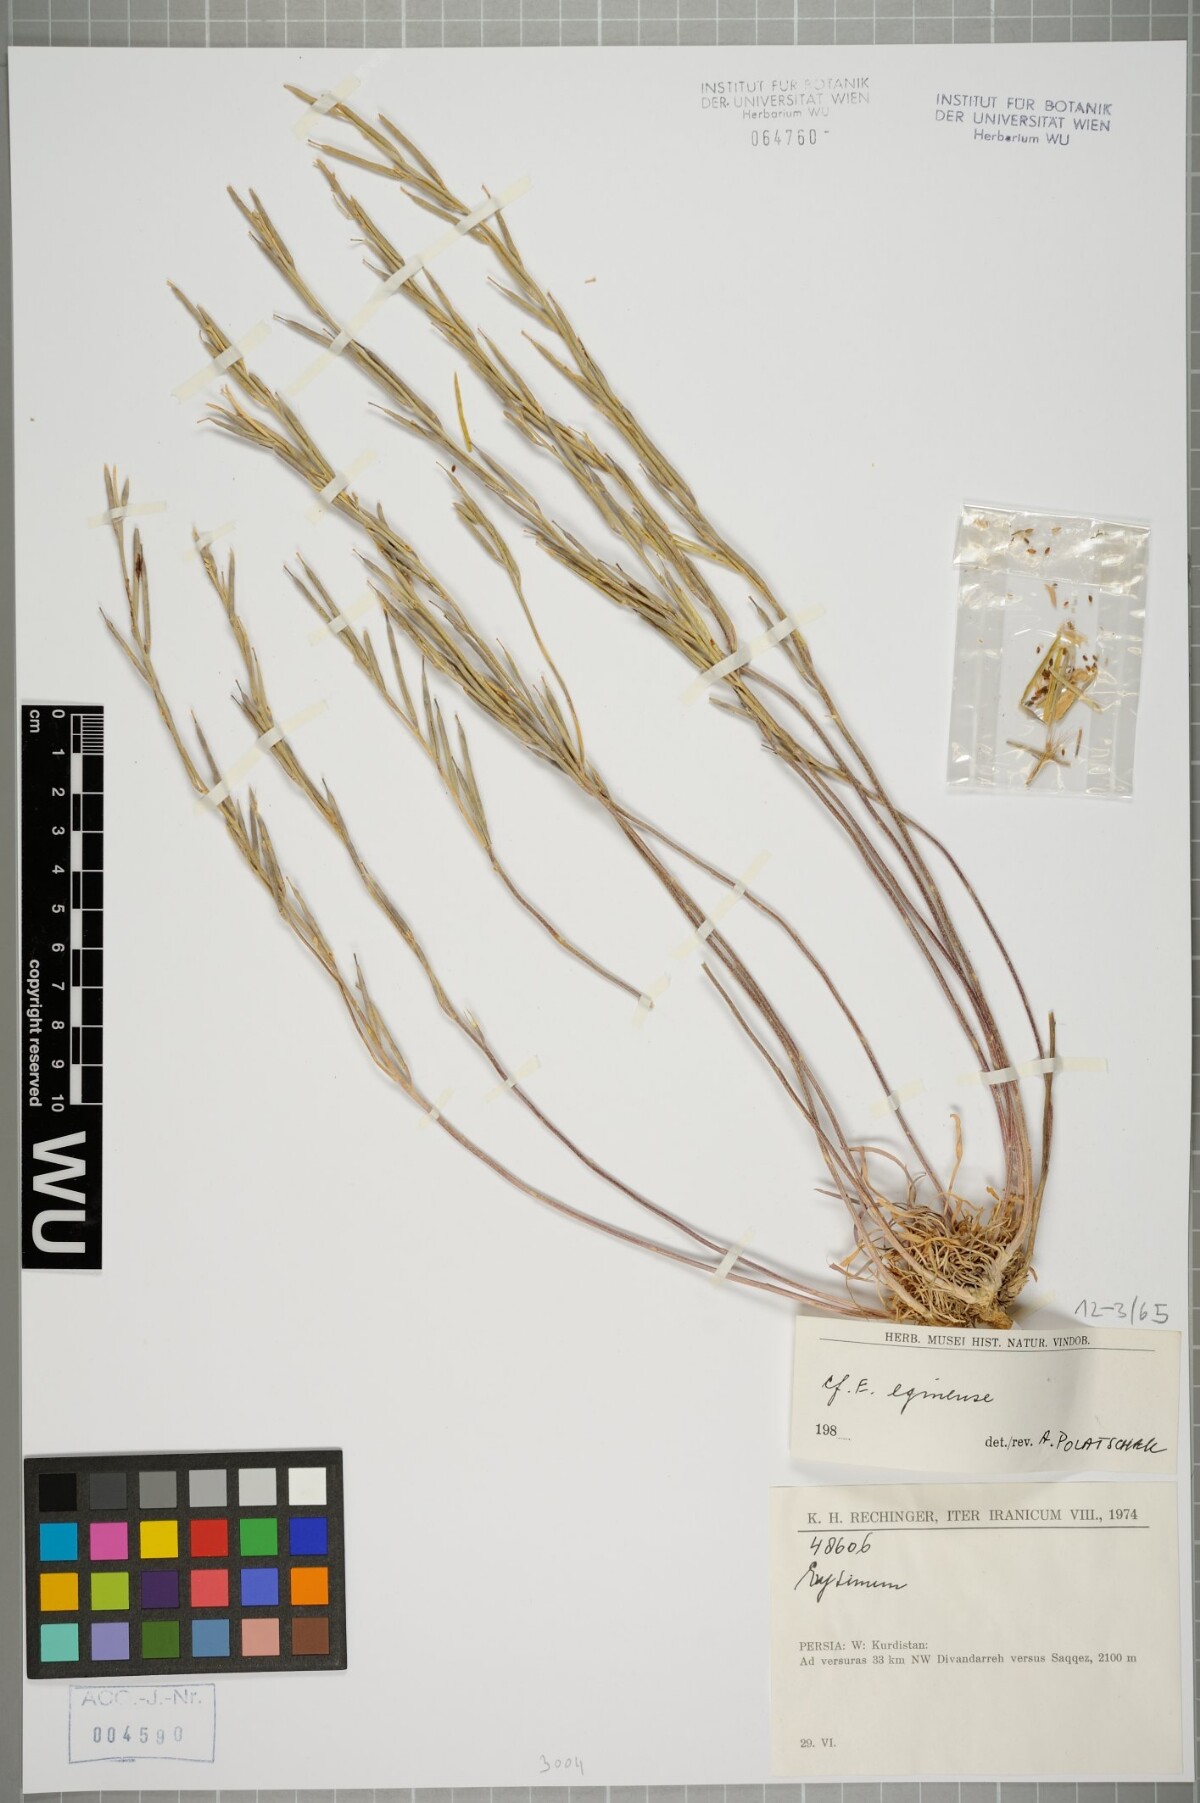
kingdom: Plantae
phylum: Tracheophyta
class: Magnoliopsida
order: Brassicales
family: Brassicaceae
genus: Erysimum
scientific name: Erysimum smyrnaeum
